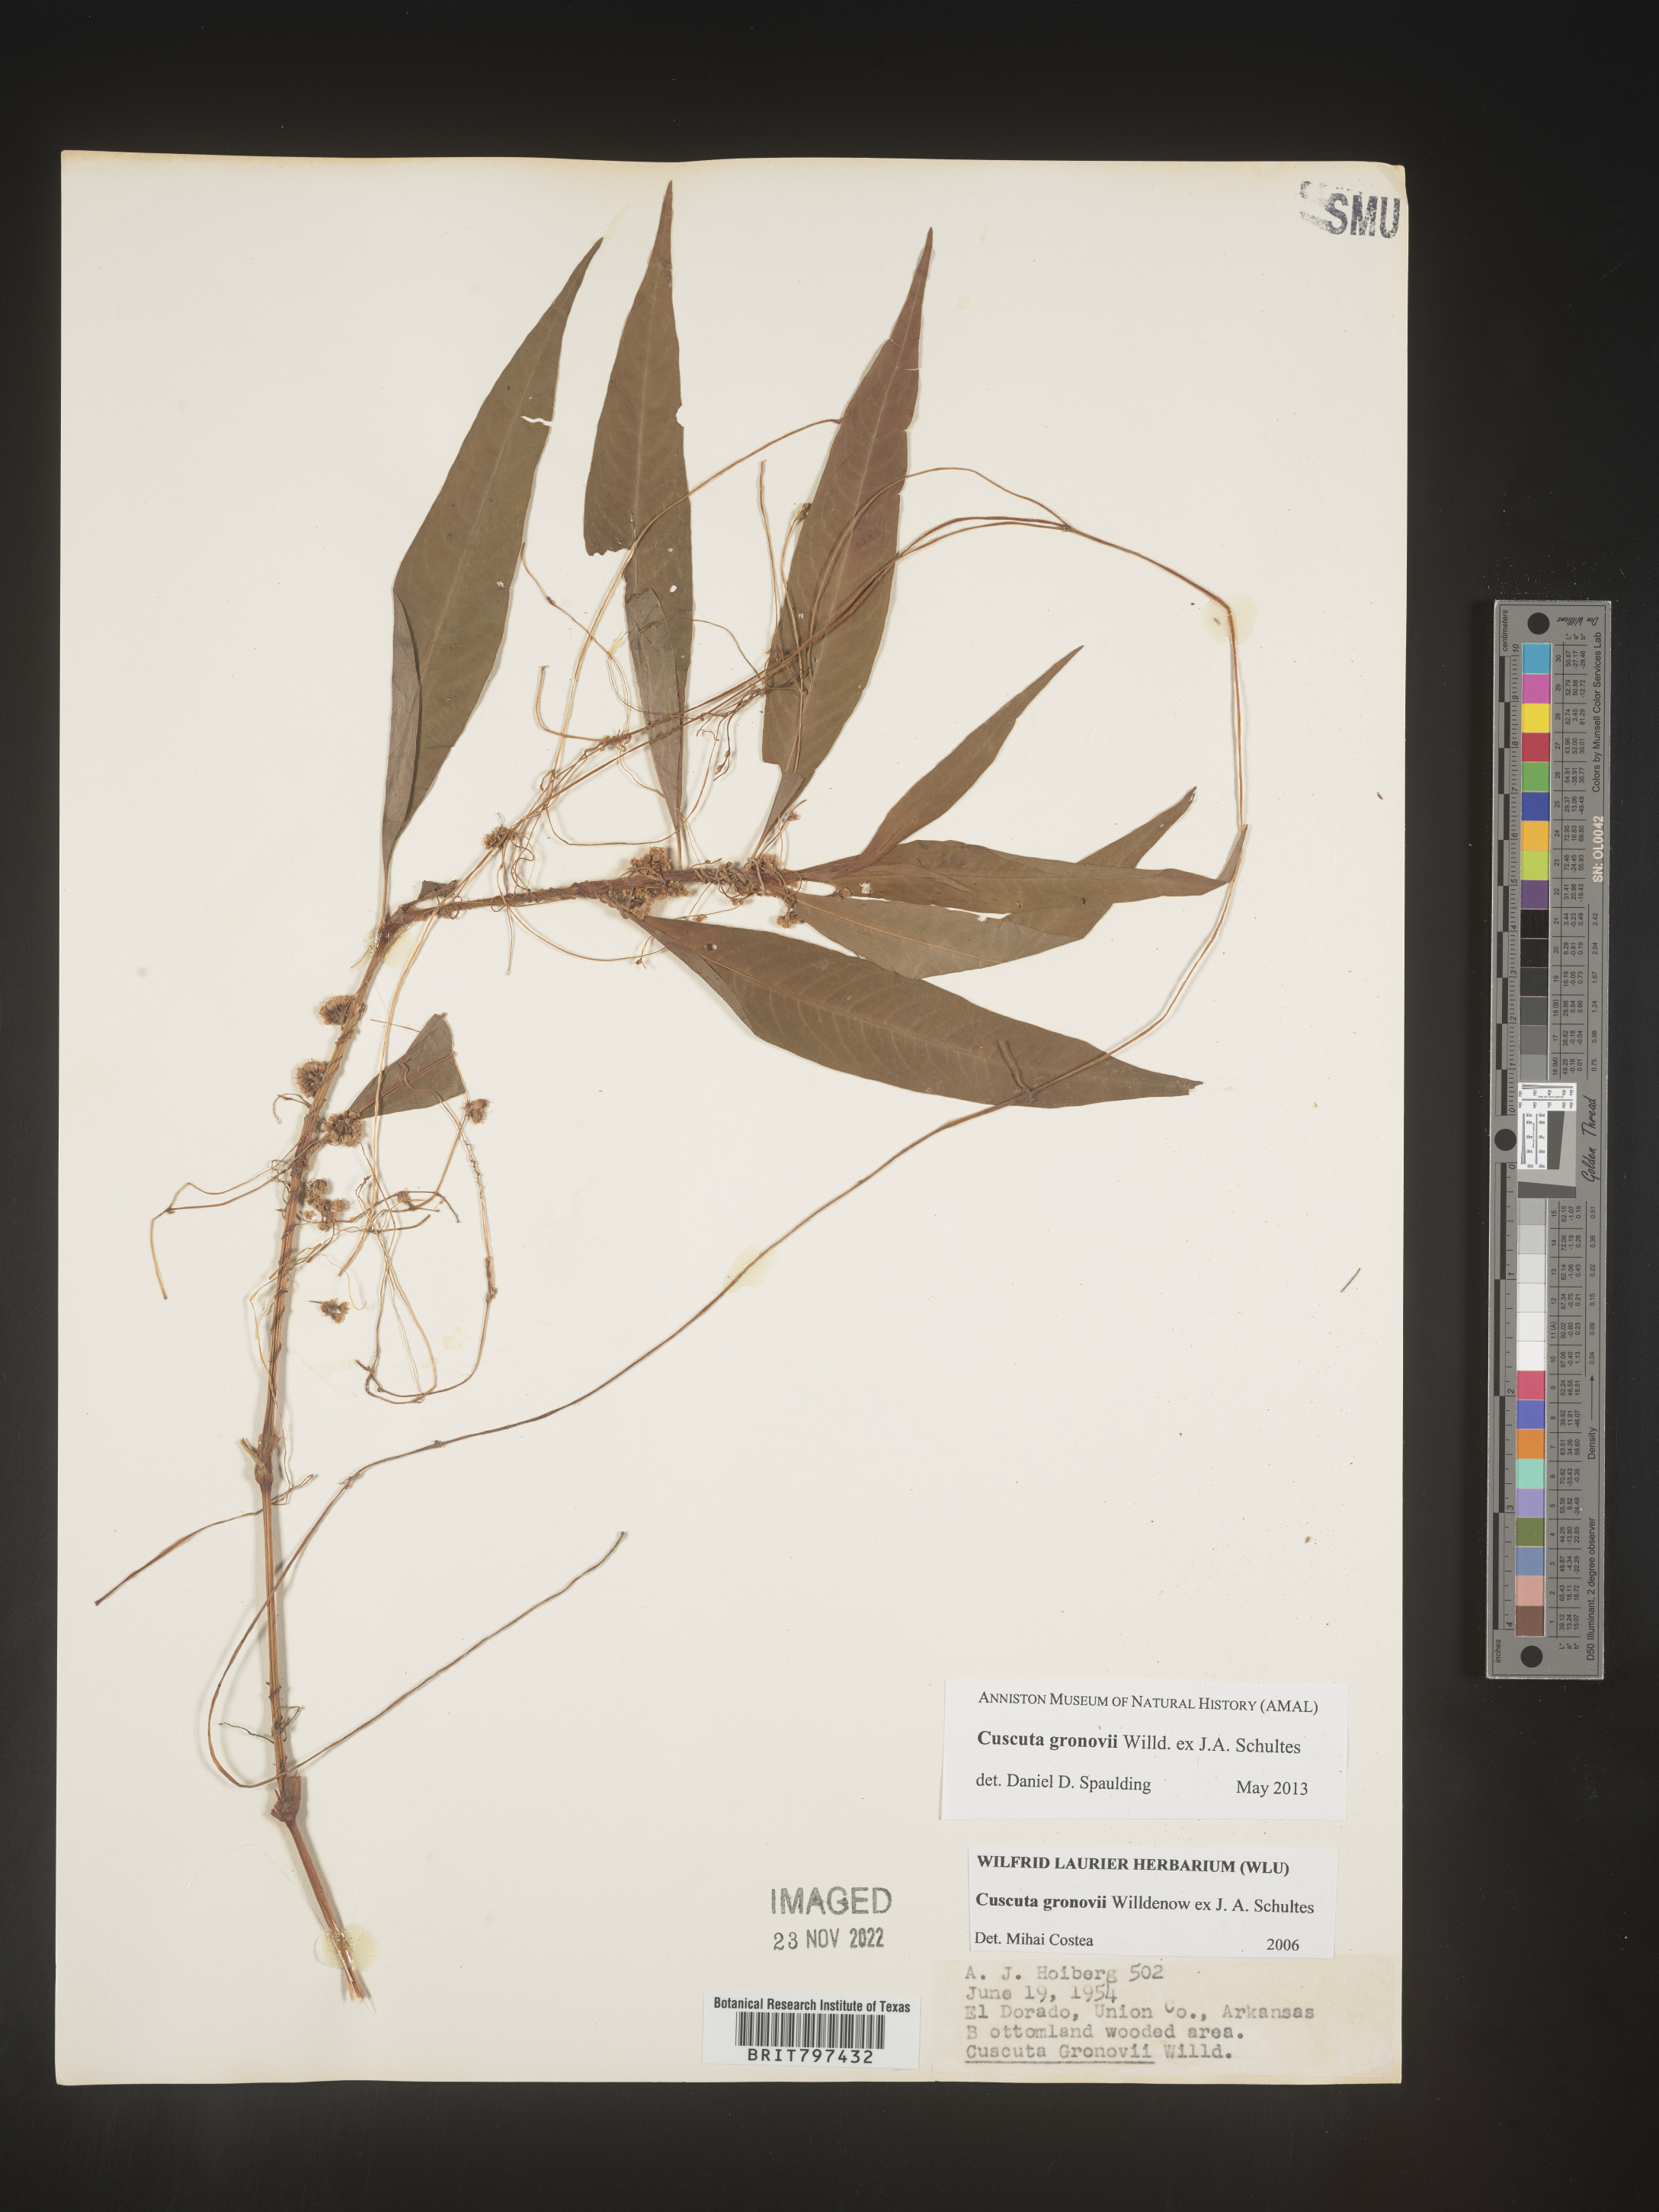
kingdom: Plantae
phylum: Tracheophyta
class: Magnoliopsida
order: Solanales
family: Convolvulaceae
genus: Cuscuta
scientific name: Cuscuta gronovii
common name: Common dodder
